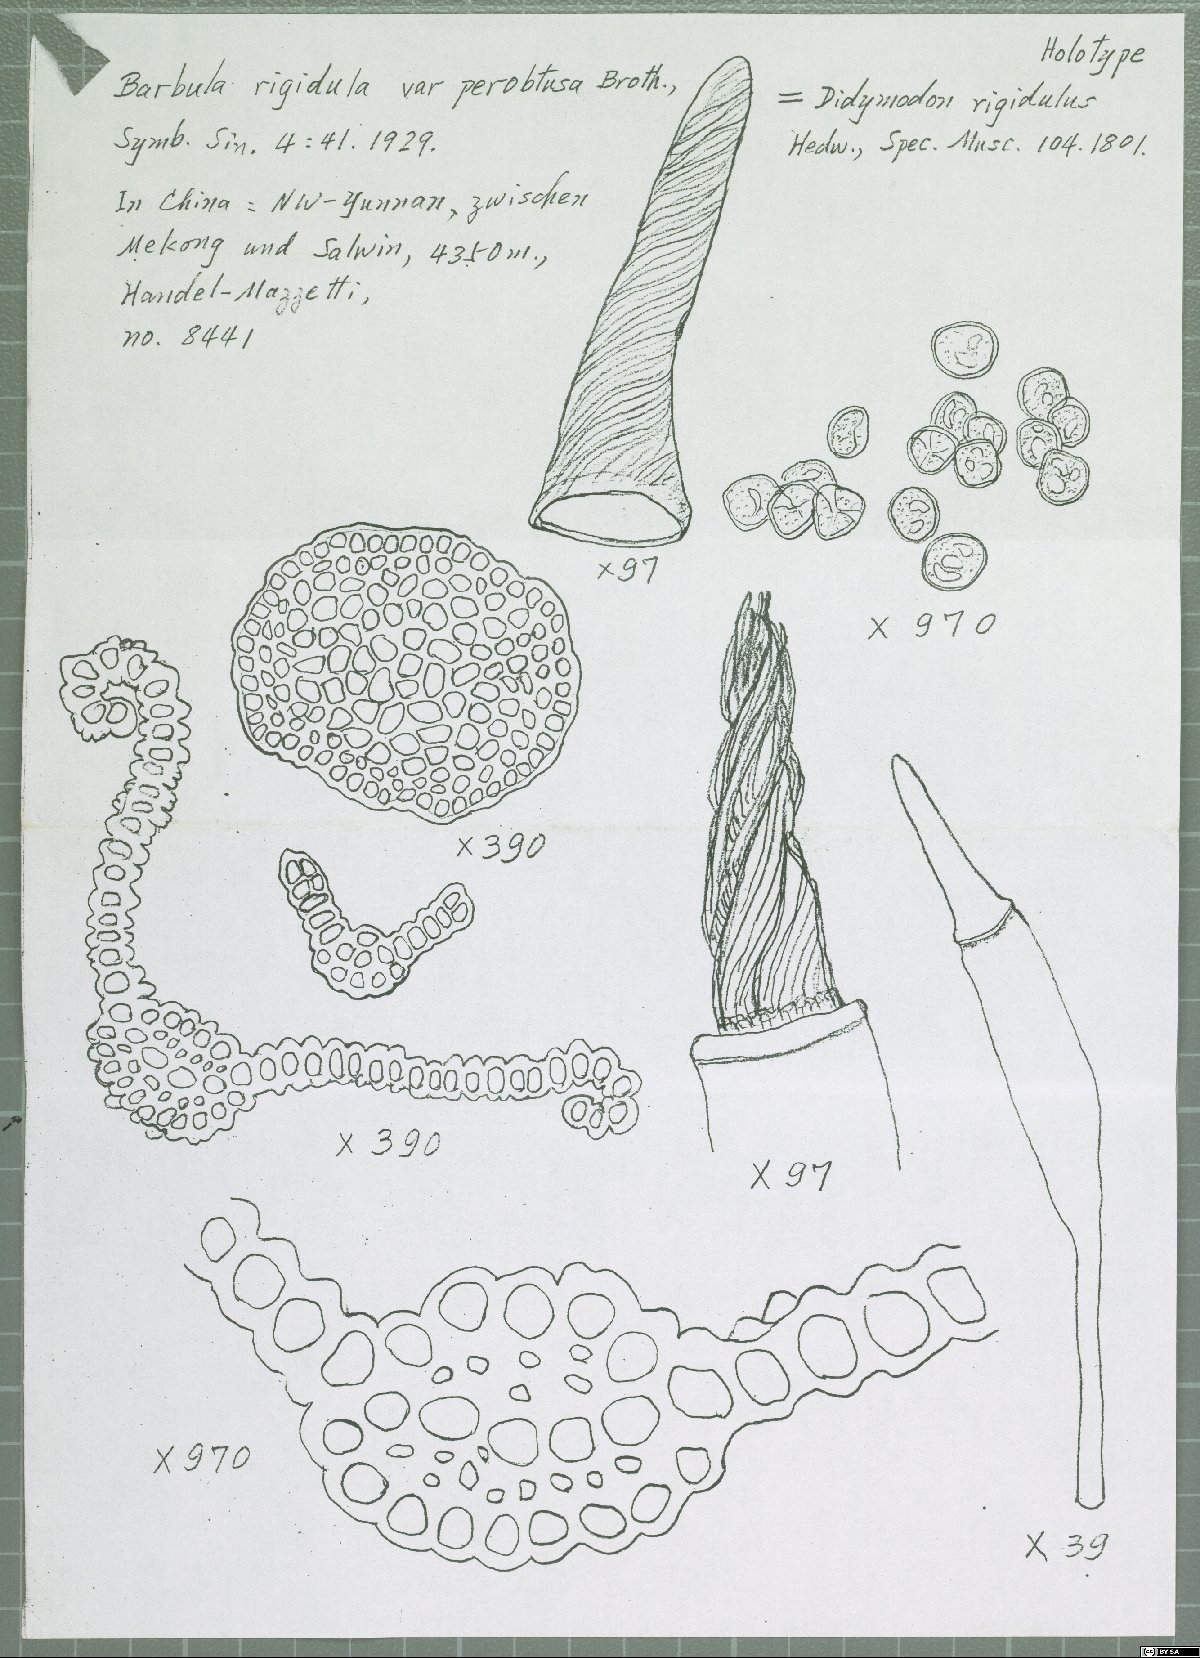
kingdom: Plantae
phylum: Bryophyta
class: Bryopsida
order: Pottiales
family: Pottiaceae
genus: Didymodon
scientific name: Didymodon nigrescens
